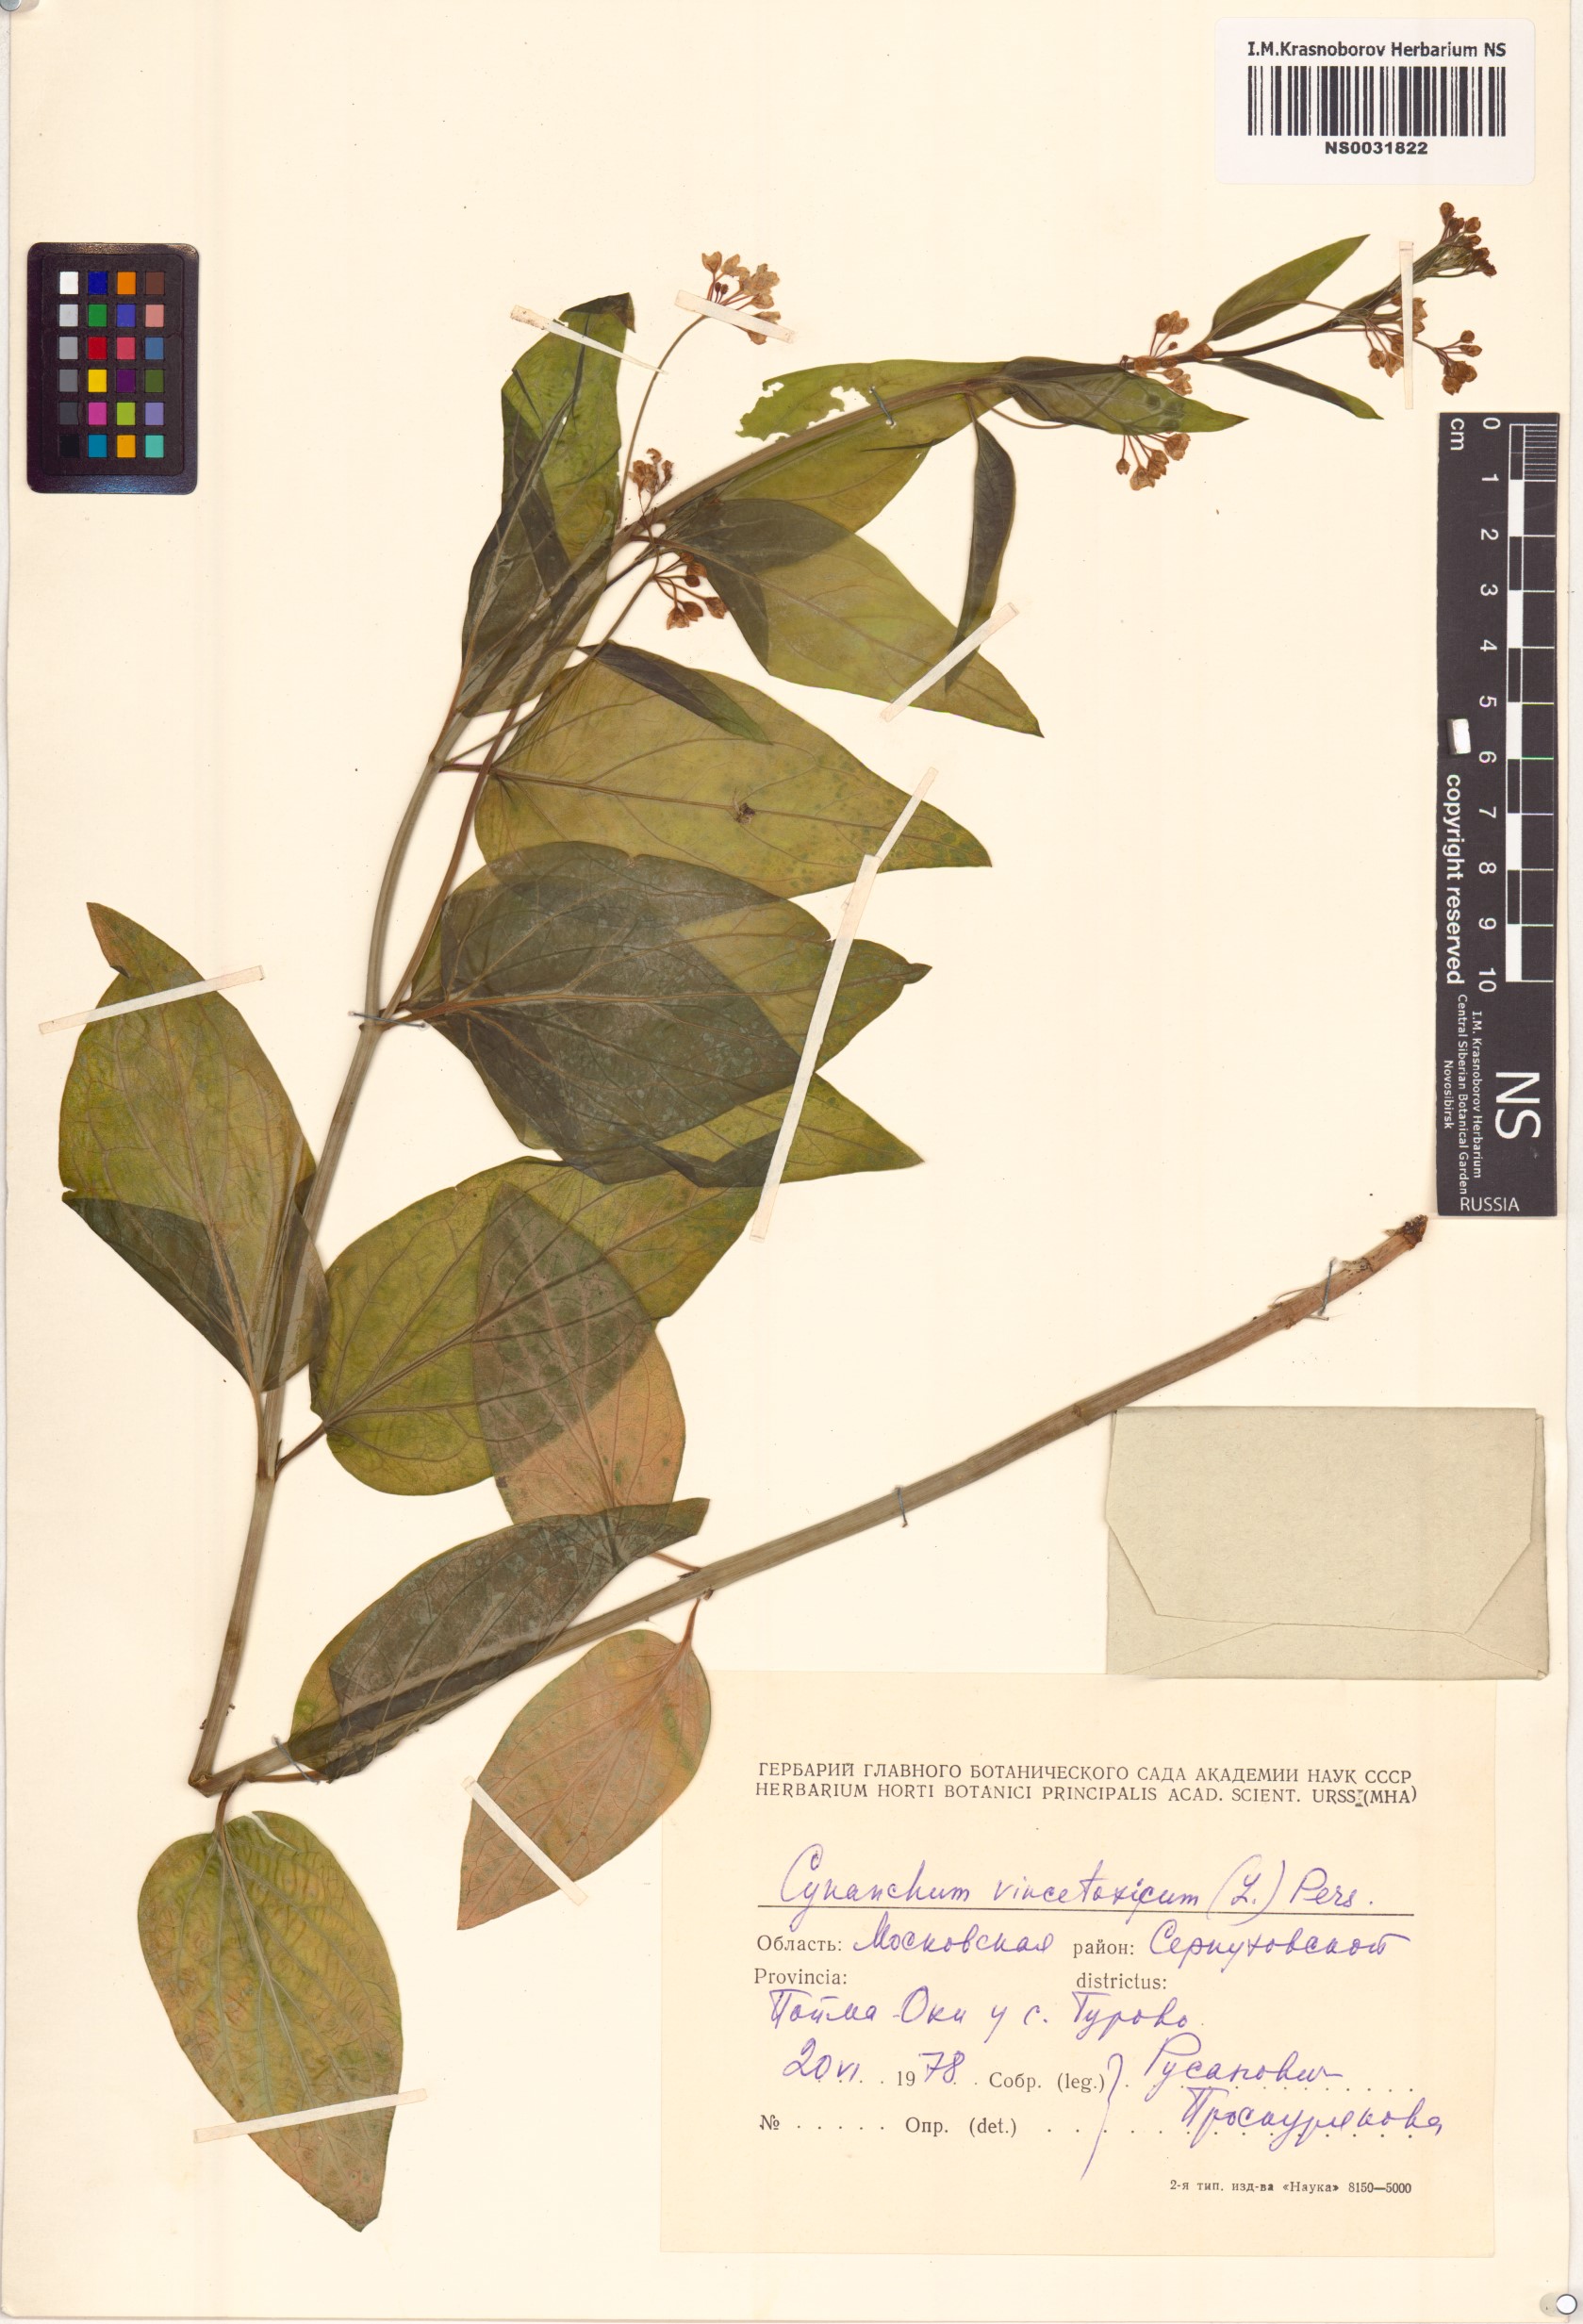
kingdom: Plantae
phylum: Tracheophyta
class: Magnoliopsida
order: Gentianales
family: Apocynaceae
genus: Vincetoxicum
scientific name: Vincetoxicum hirundinaria
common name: White swallowwort
